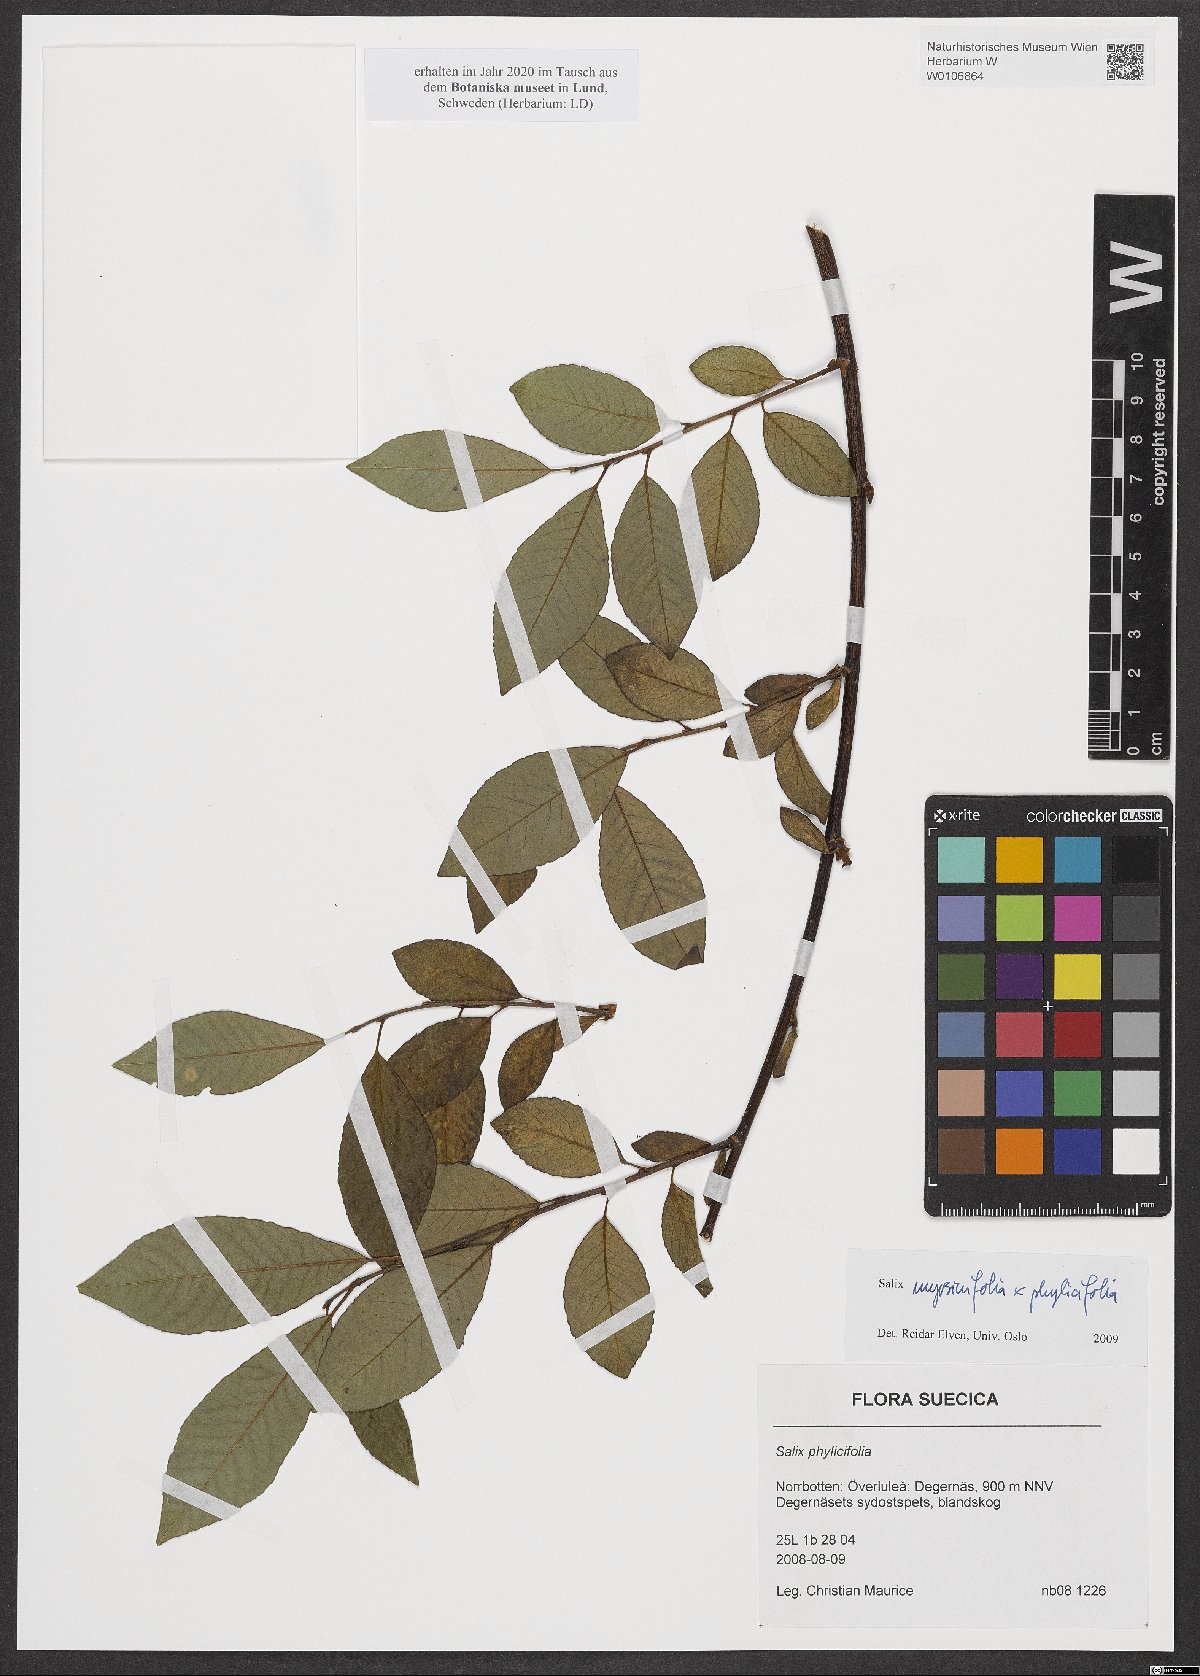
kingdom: Plantae
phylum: Tracheophyta
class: Magnoliopsida
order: Malpighiales
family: Salicaceae
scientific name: Salicaceae
